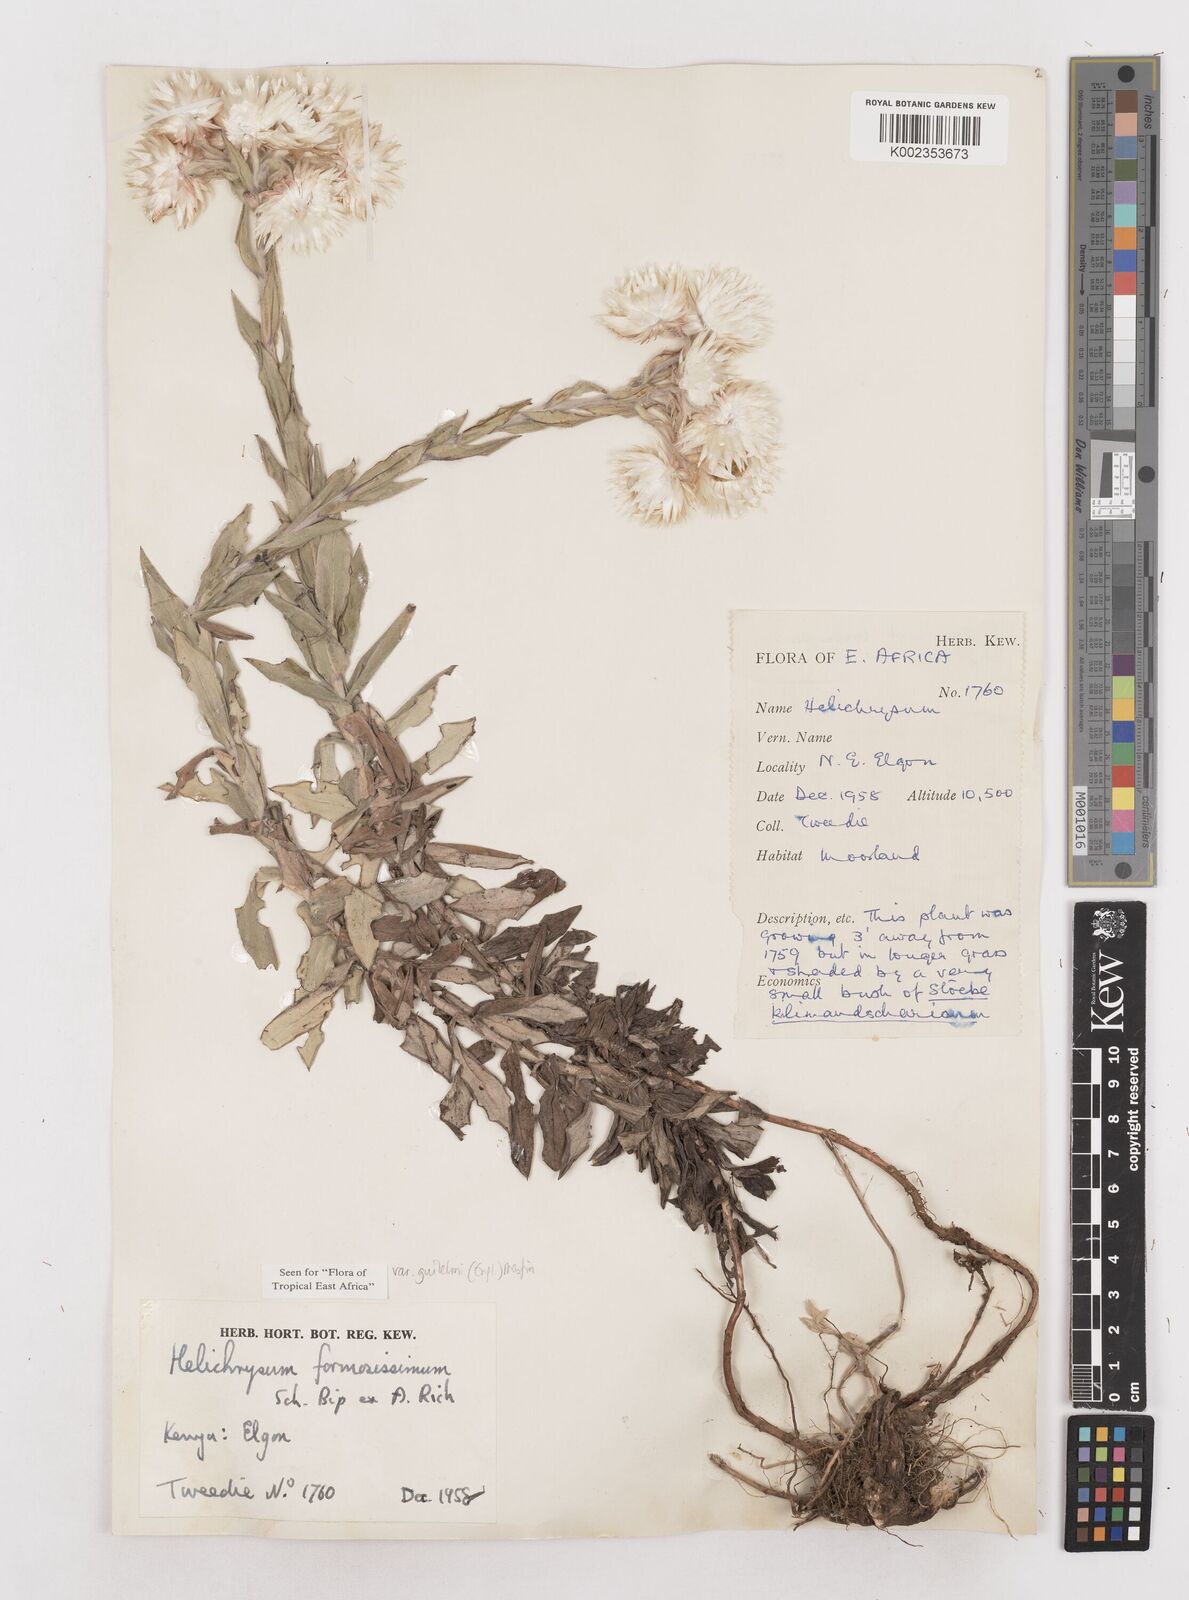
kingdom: Plantae
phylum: Tracheophyta
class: Magnoliopsida
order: Asterales
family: Asteraceae
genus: Helichrysum
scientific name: Helichrysum formosissimum
